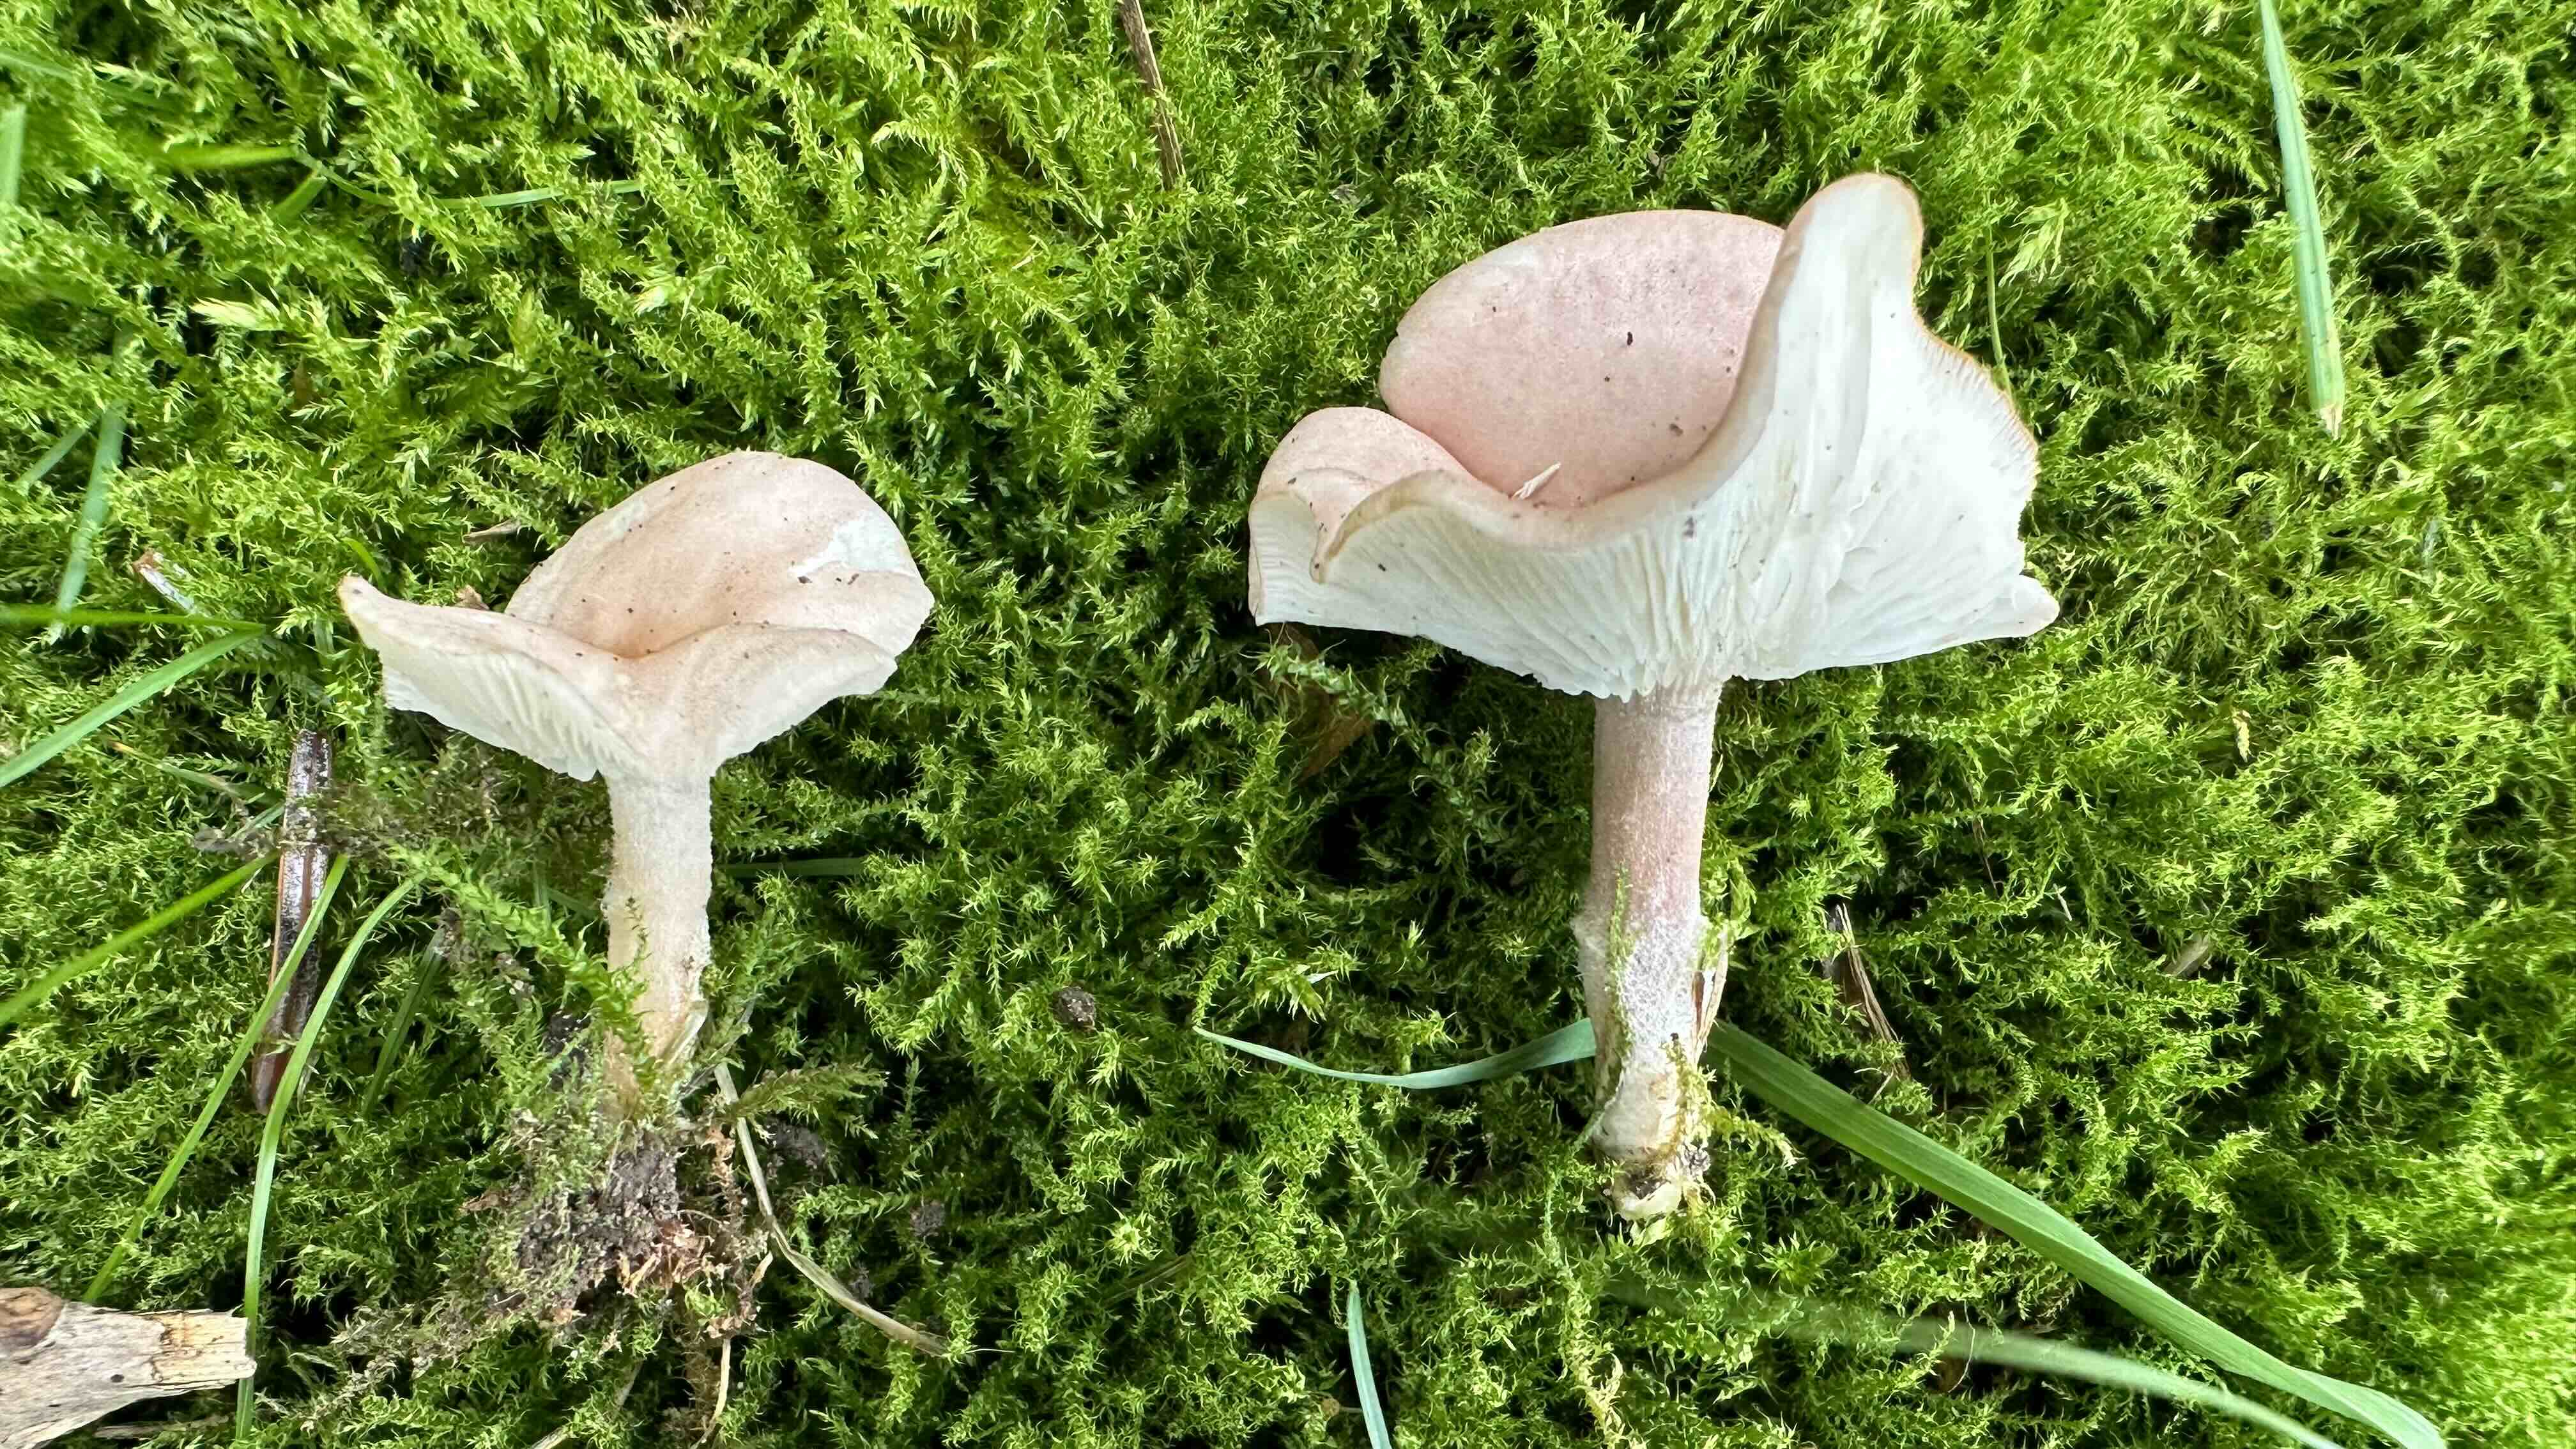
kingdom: Fungi
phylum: Basidiomycota
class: Agaricomycetes
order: Agaricales
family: Lyophyllaceae
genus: Calocybe
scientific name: Calocybe carnea
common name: rosa fagerhat
